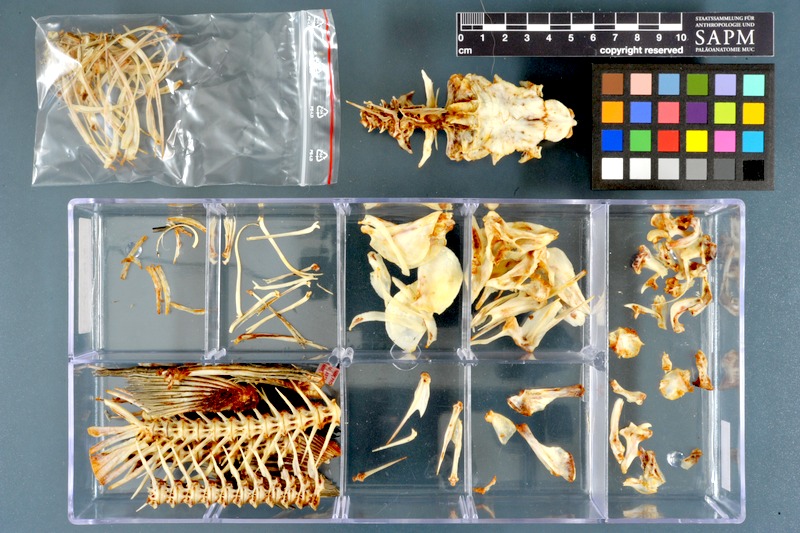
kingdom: Animalia
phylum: Chordata
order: Cypriniformes
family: Cyprinidae
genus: Labeo
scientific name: Labeo forskalii
